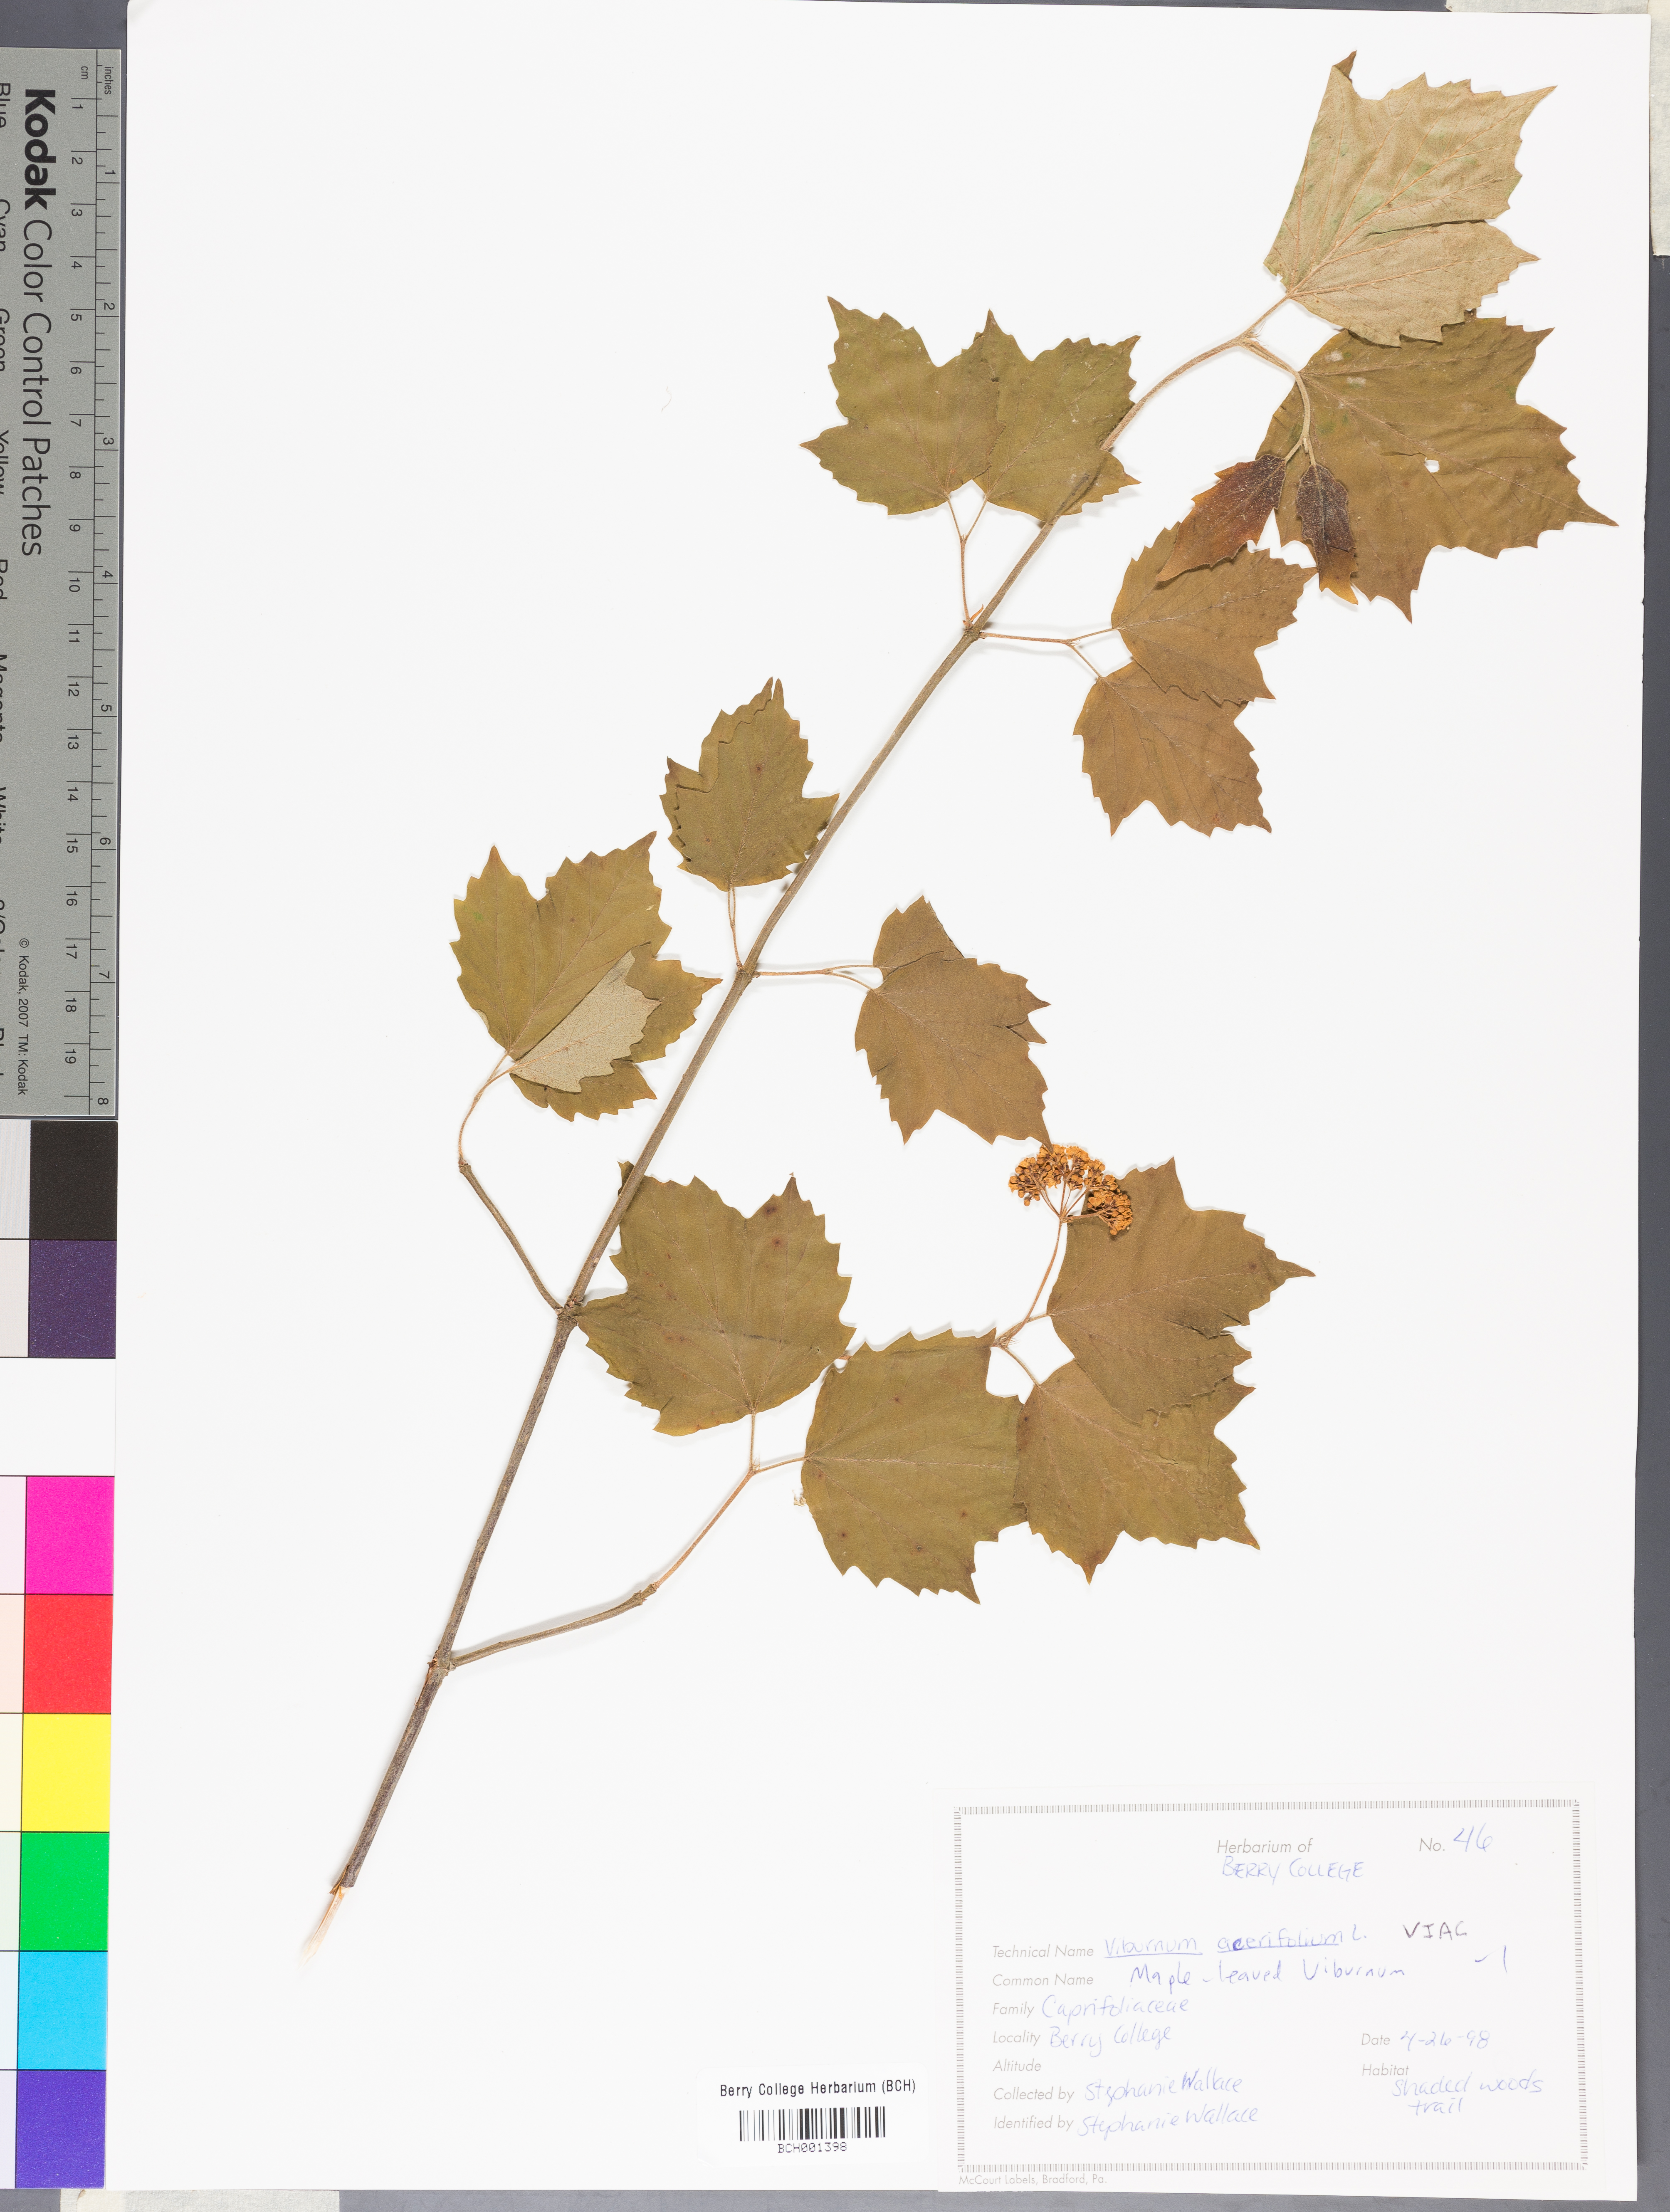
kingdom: Plantae
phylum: Tracheophyta
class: Magnoliopsida
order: Dipsacales
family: Viburnaceae
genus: Viburnum
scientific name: Viburnum acerifolium
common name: Dockmackie
